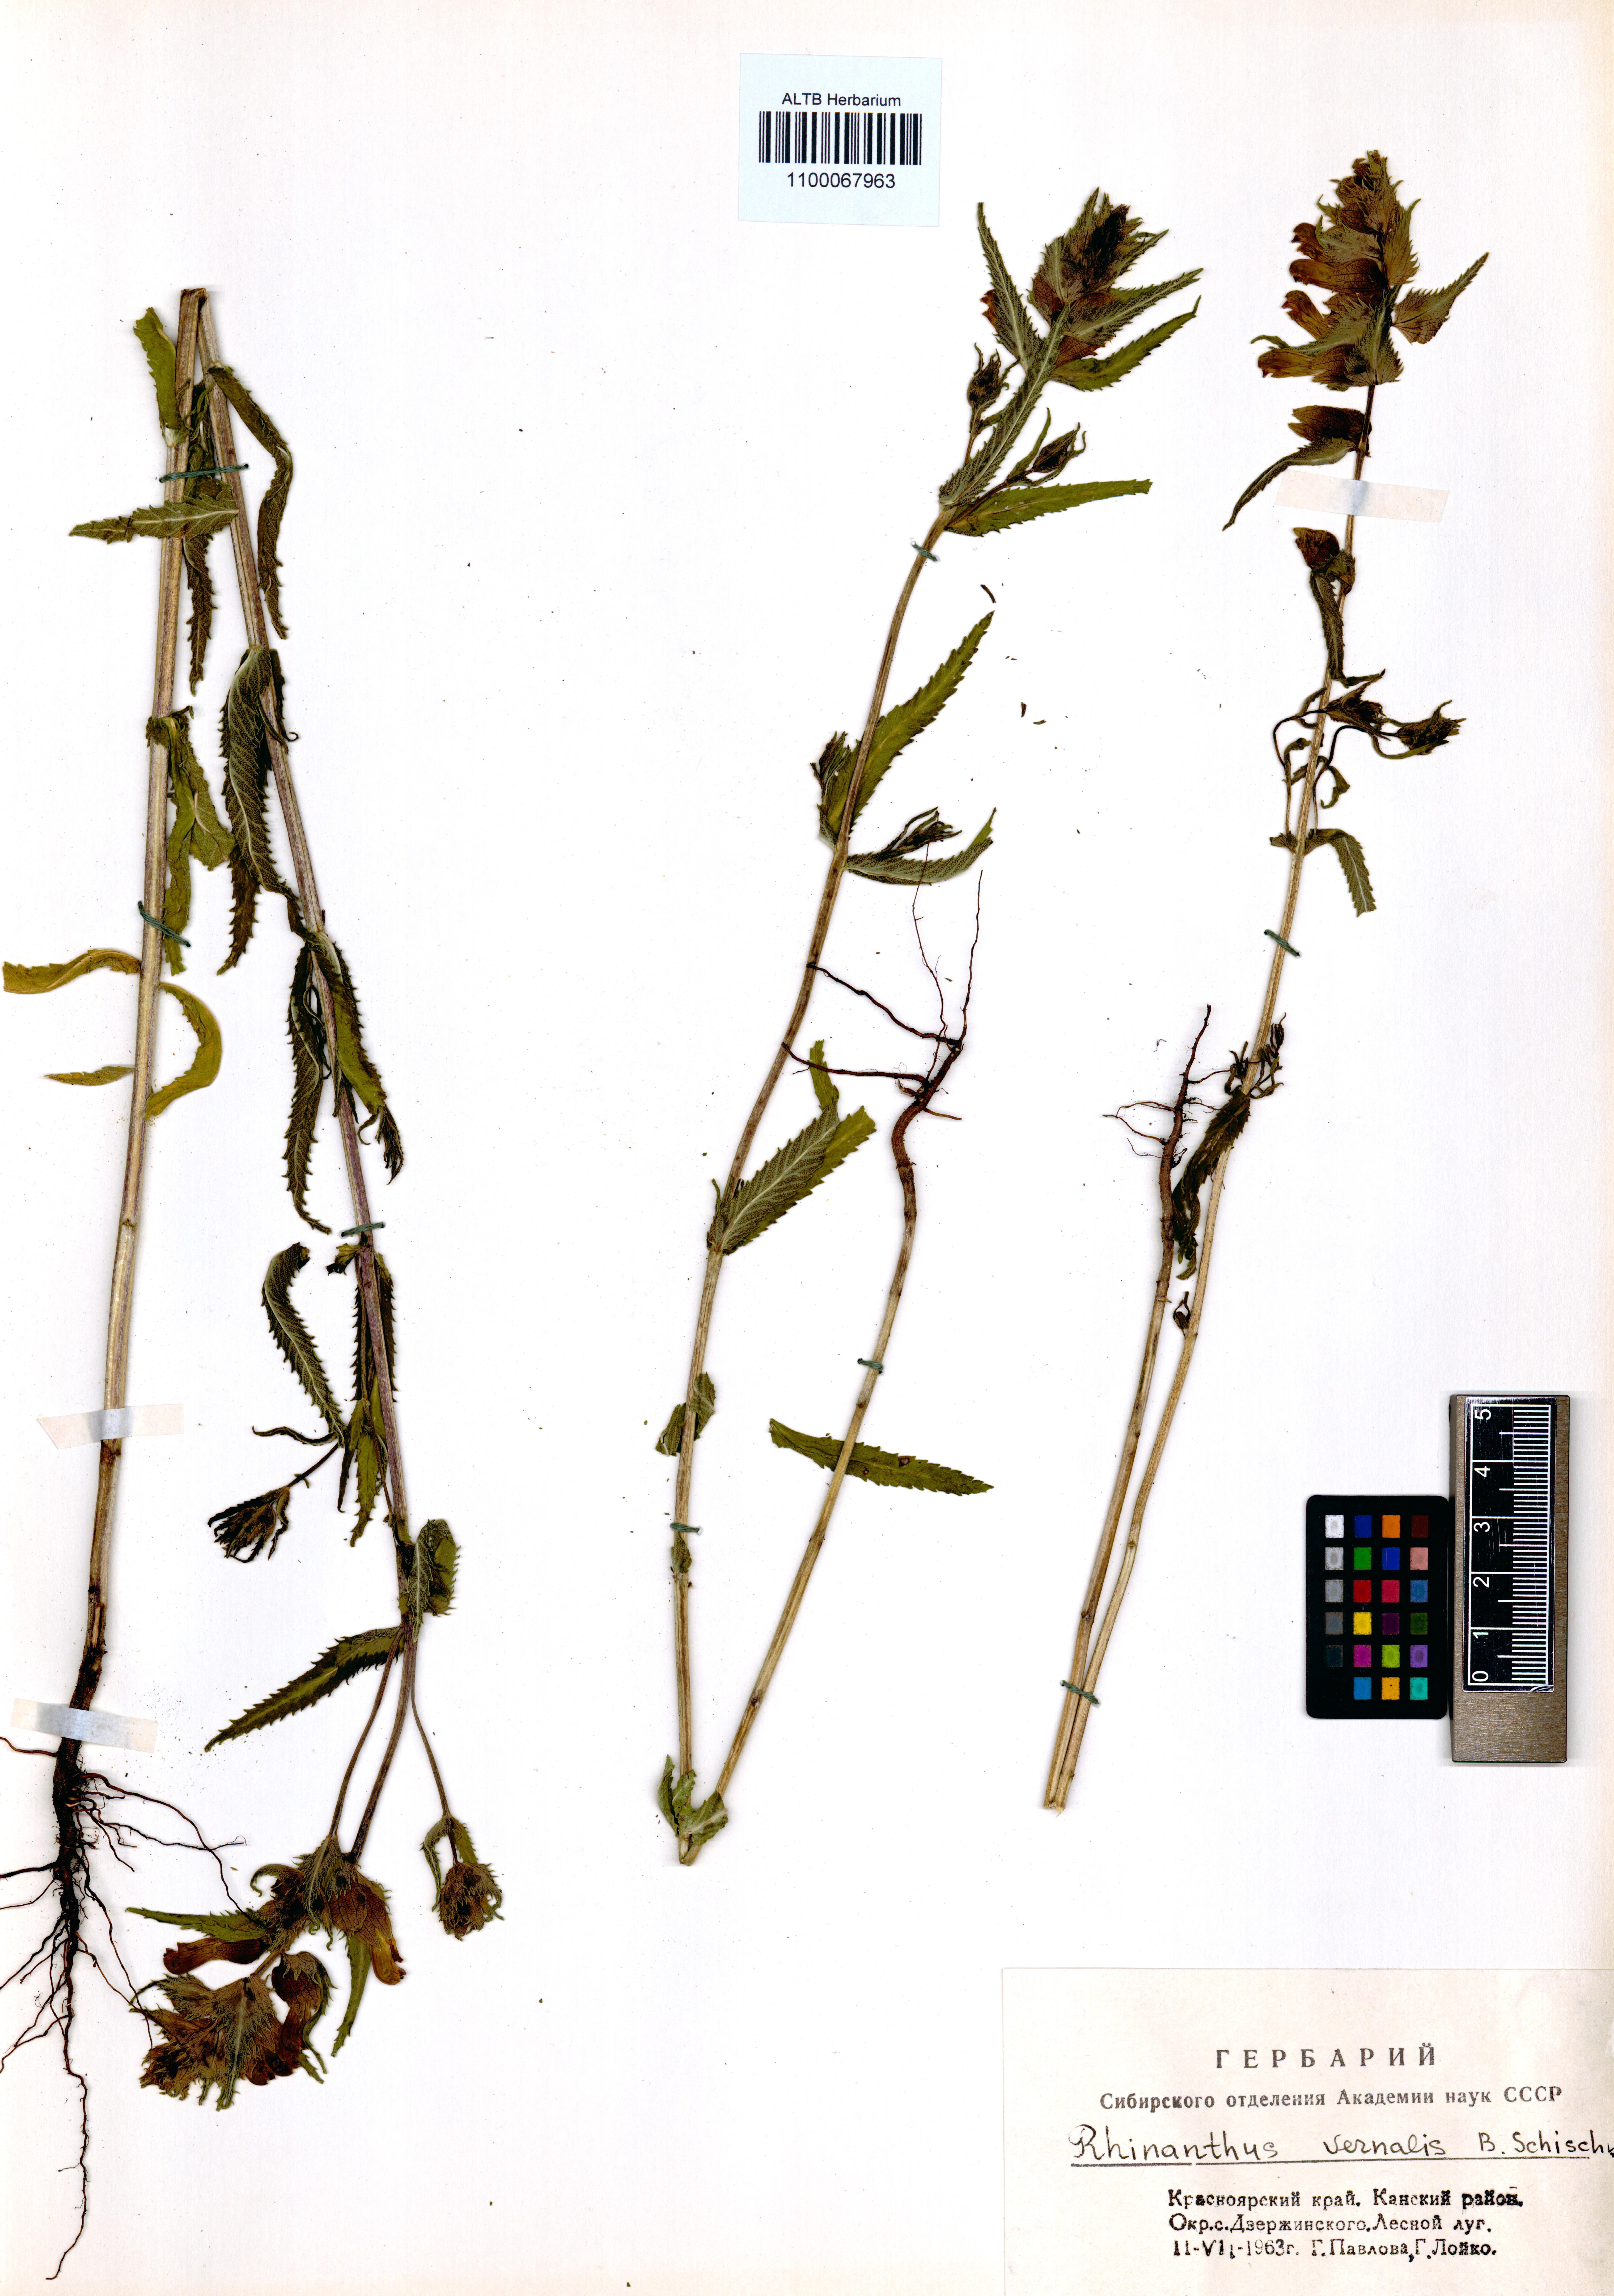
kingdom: Plantae
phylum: Tracheophyta
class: Magnoliopsida
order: Lamiales
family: Orobanchaceae
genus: Rhinanthus
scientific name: Rhinanthus serotinus
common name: Late-flowering yellow rattle
